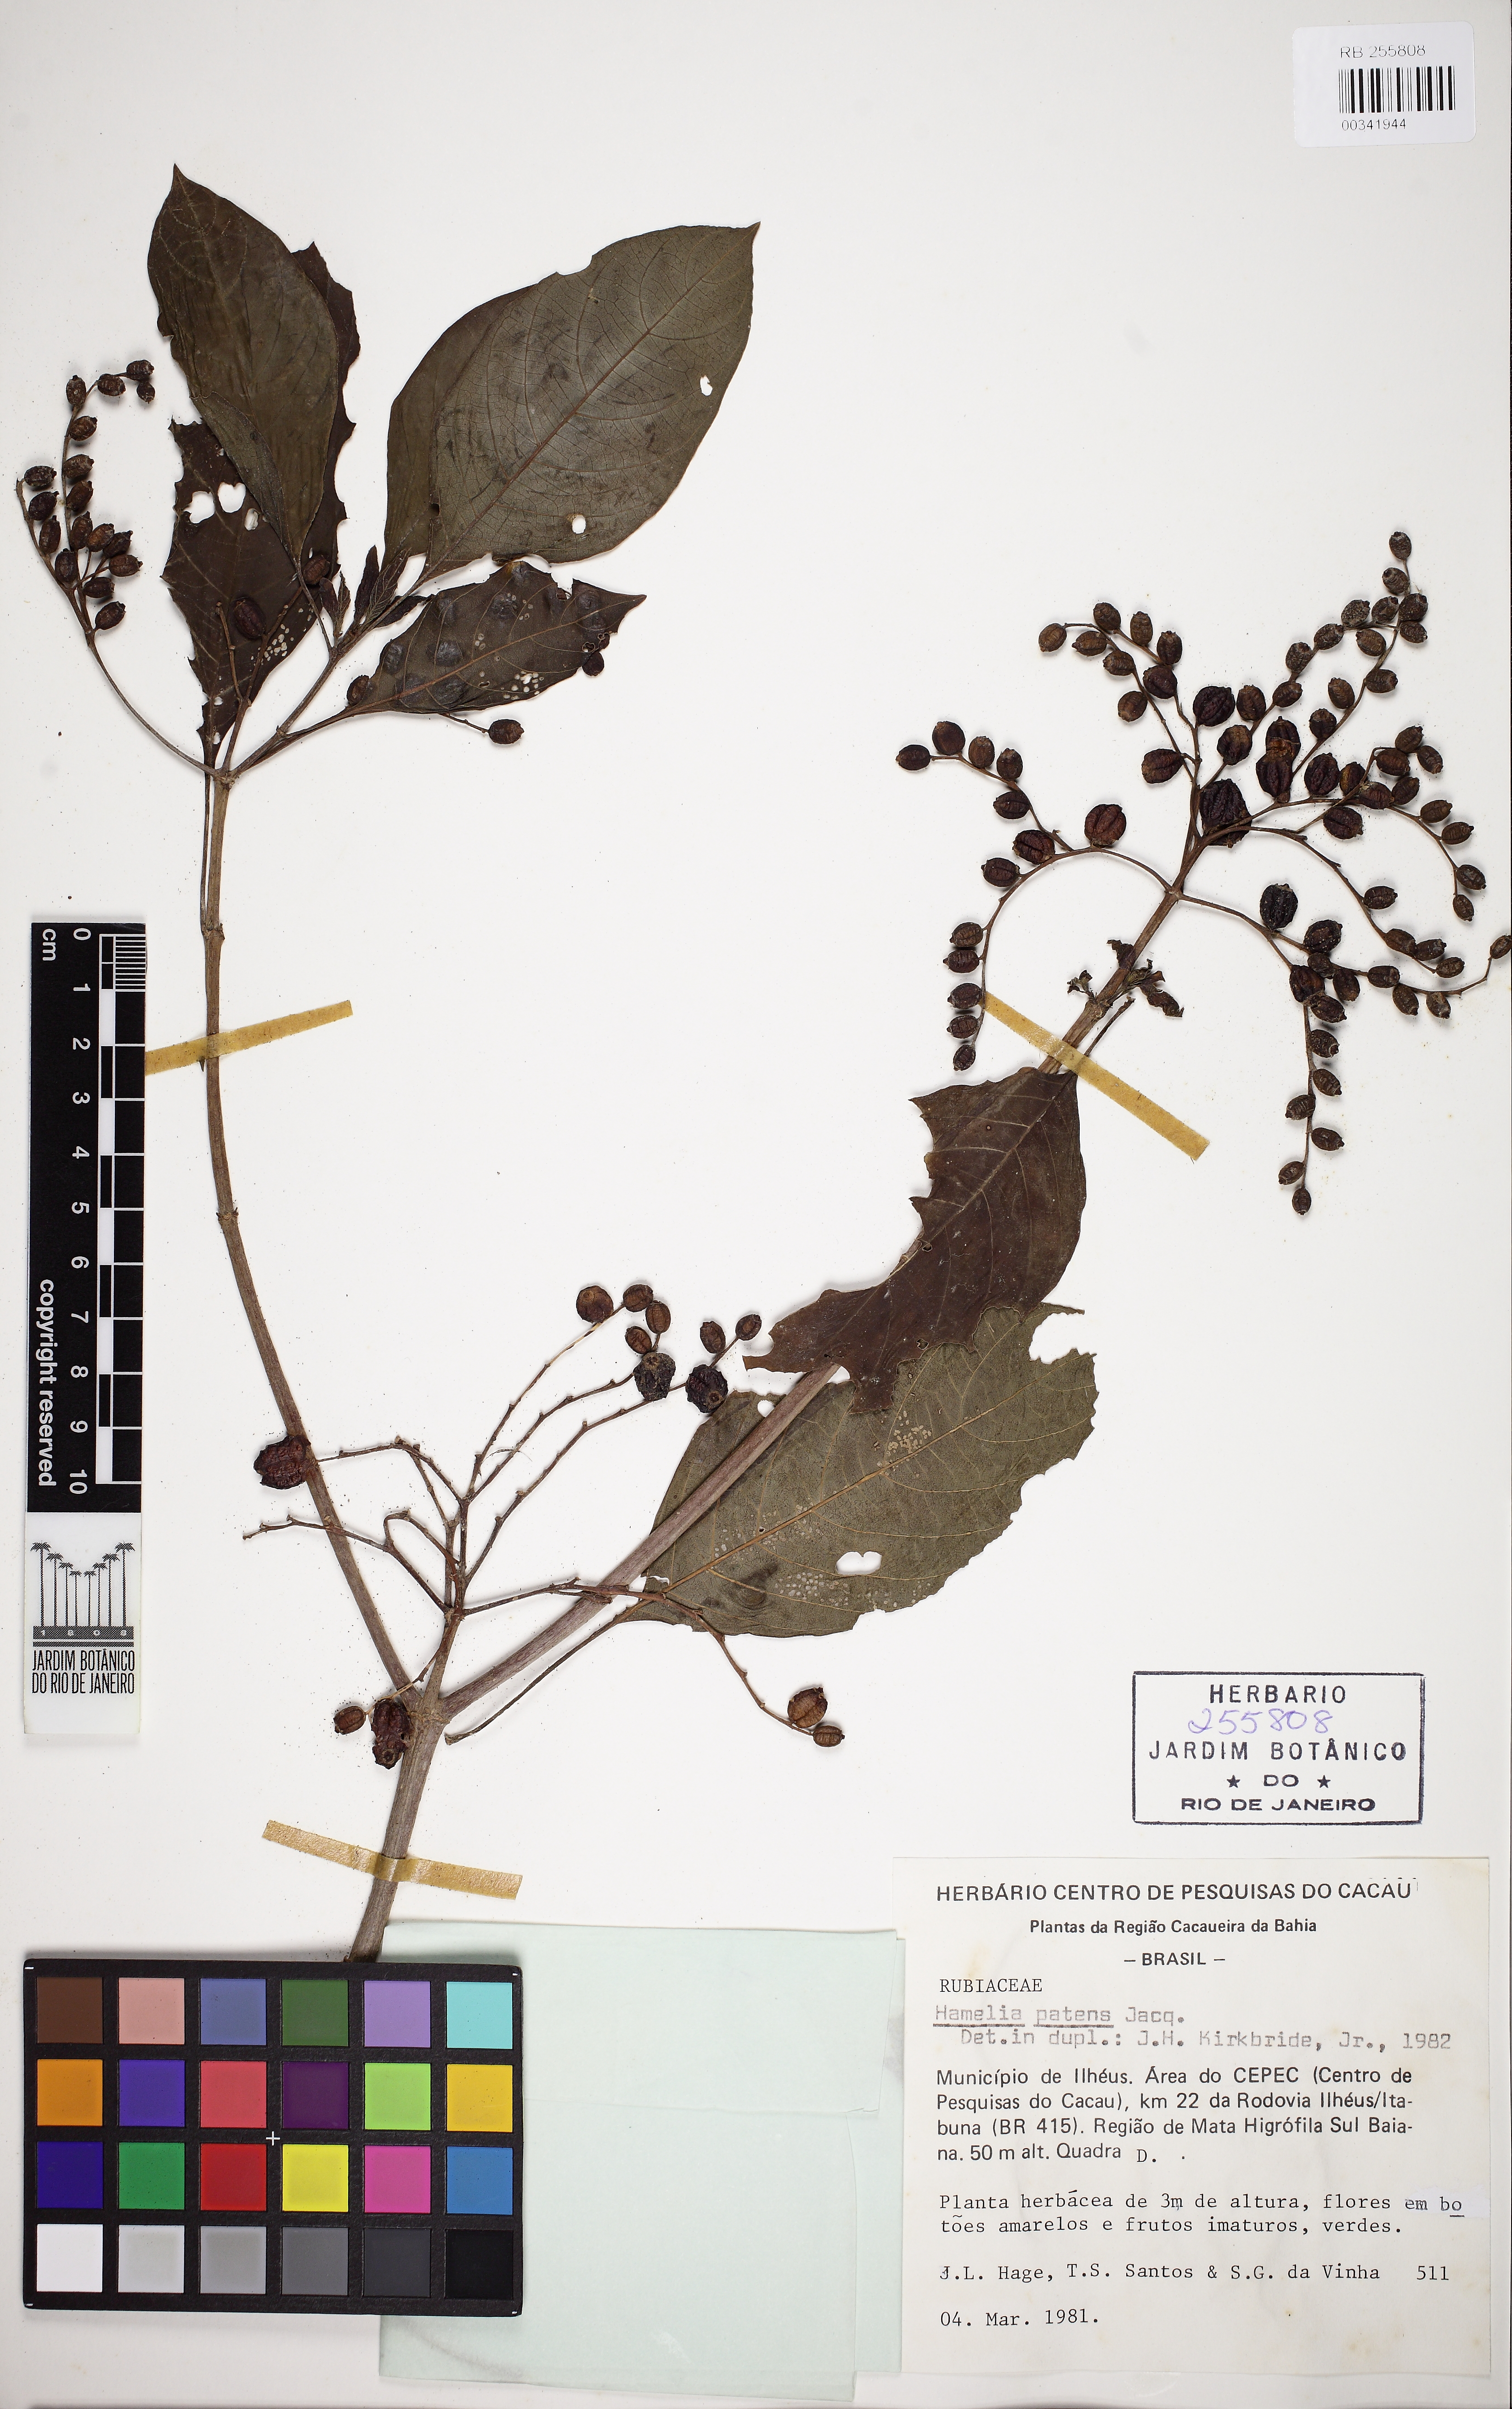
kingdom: Plantae
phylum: Tracheophyta
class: Magnoliopsida
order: Gentianales
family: Rubiaceae
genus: Hamelia
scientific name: Hamelia patens
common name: Redhead
